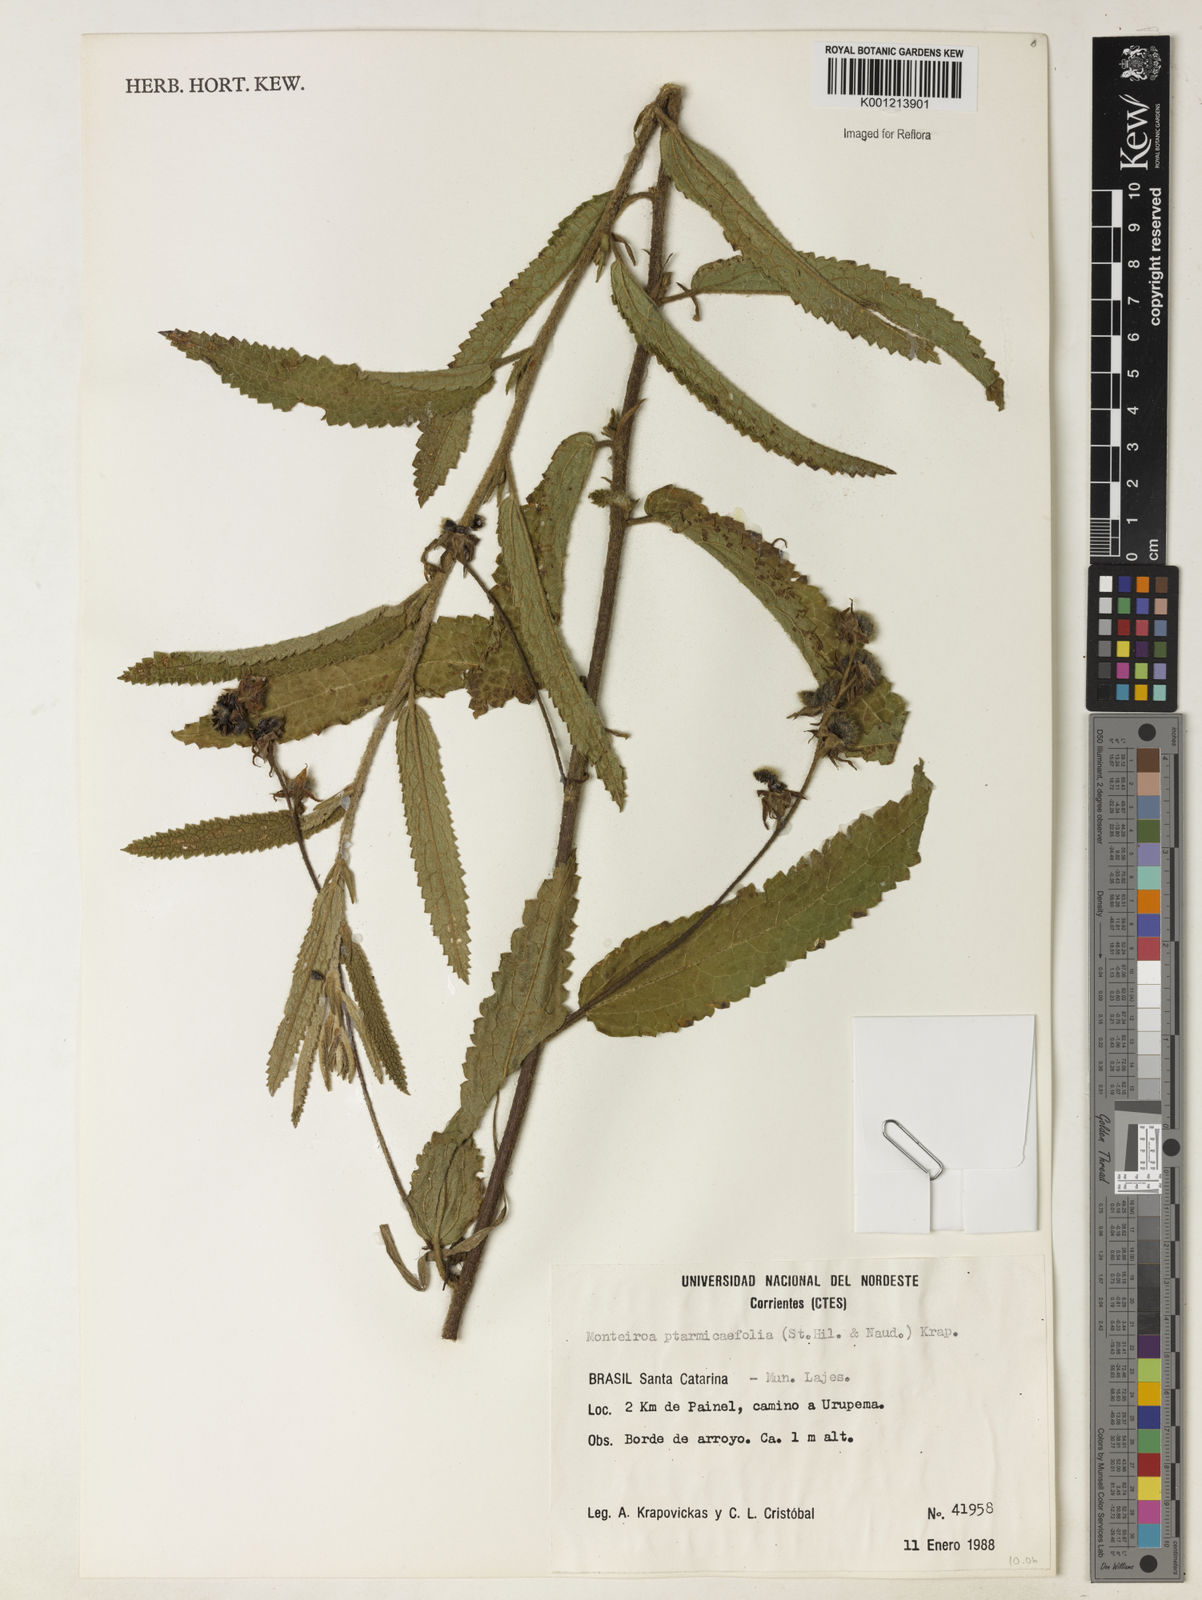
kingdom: Plantae
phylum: Tracheophyta
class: Magnoliopsida
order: Malvales
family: Malvaceae
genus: Monteiroa
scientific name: Monteiroa ptarmicifolia
